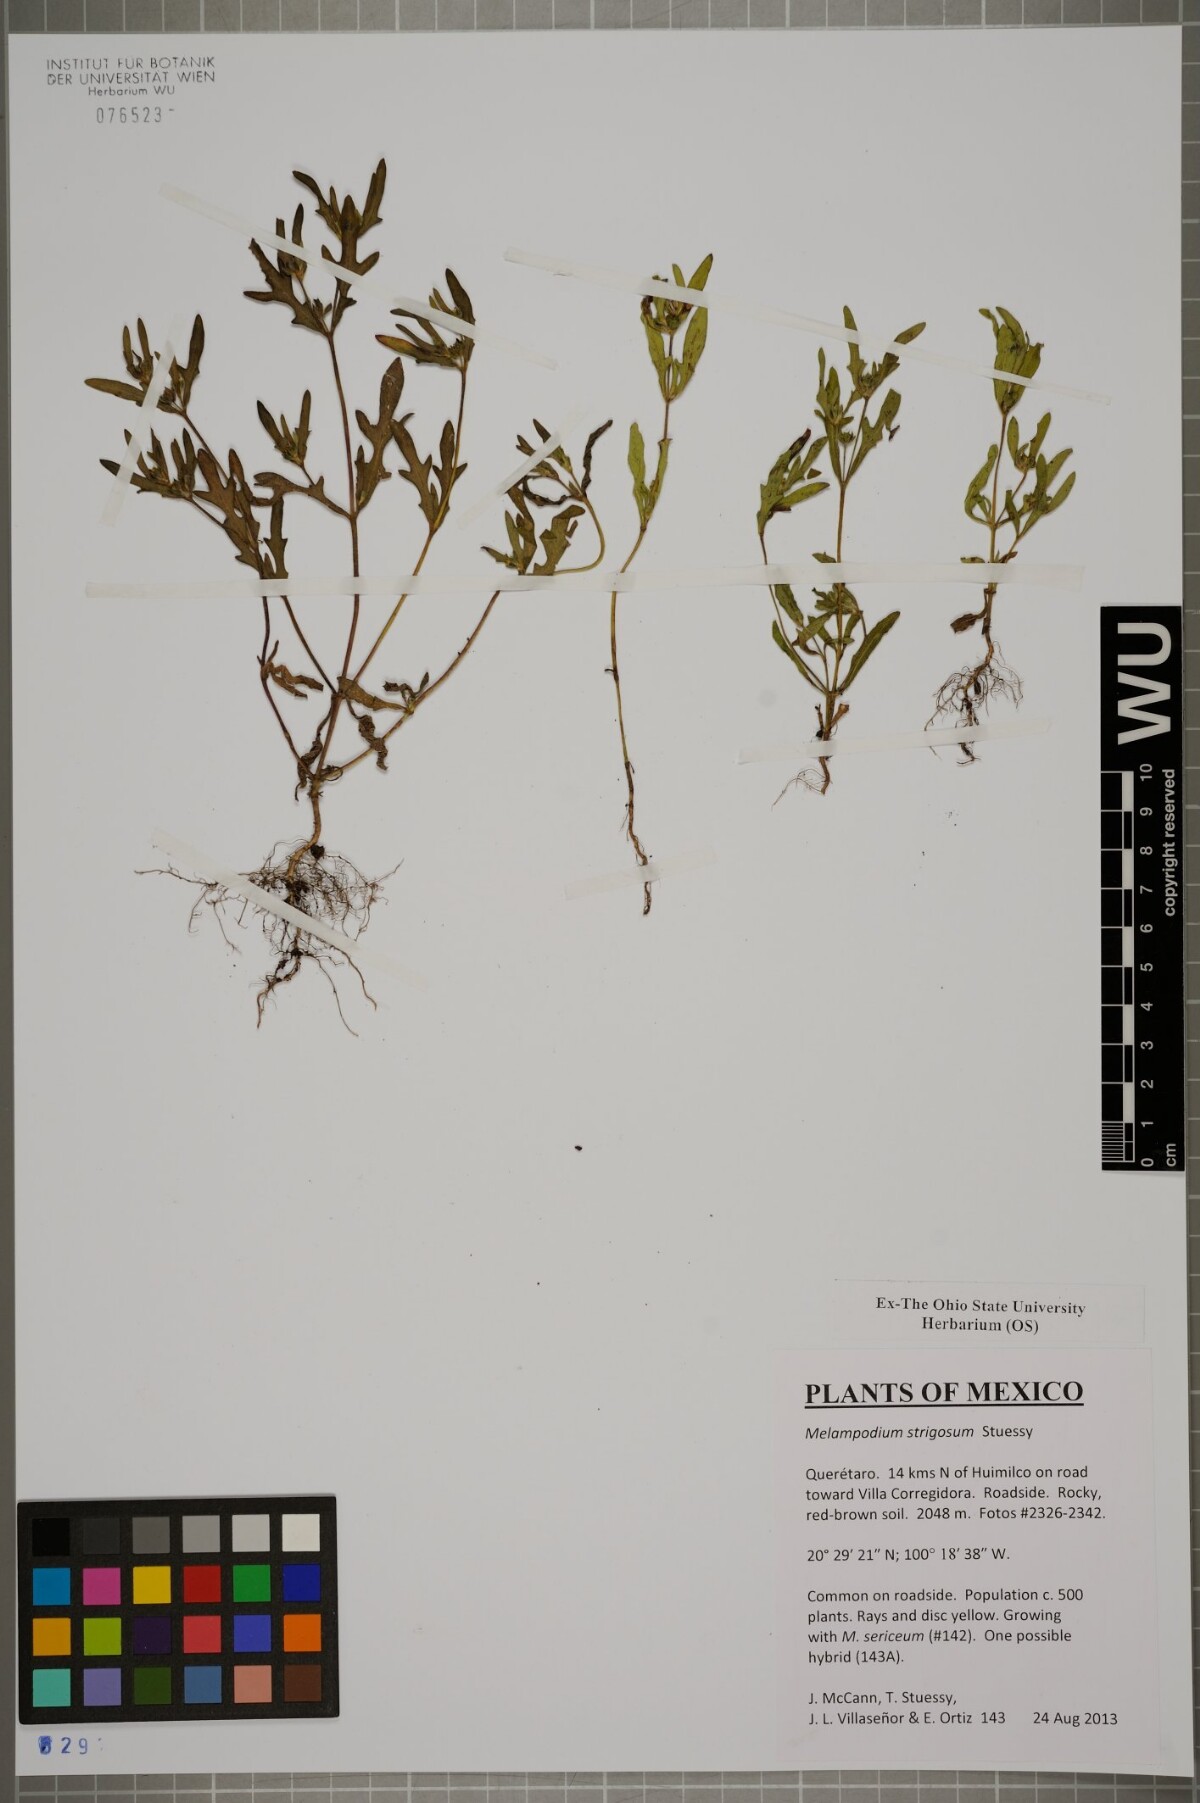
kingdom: Plantae
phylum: Tracheophyta
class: Magnoliopsida
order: Asterales
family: Asteraceae
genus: Melampodium
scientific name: Melampodium strigosum
